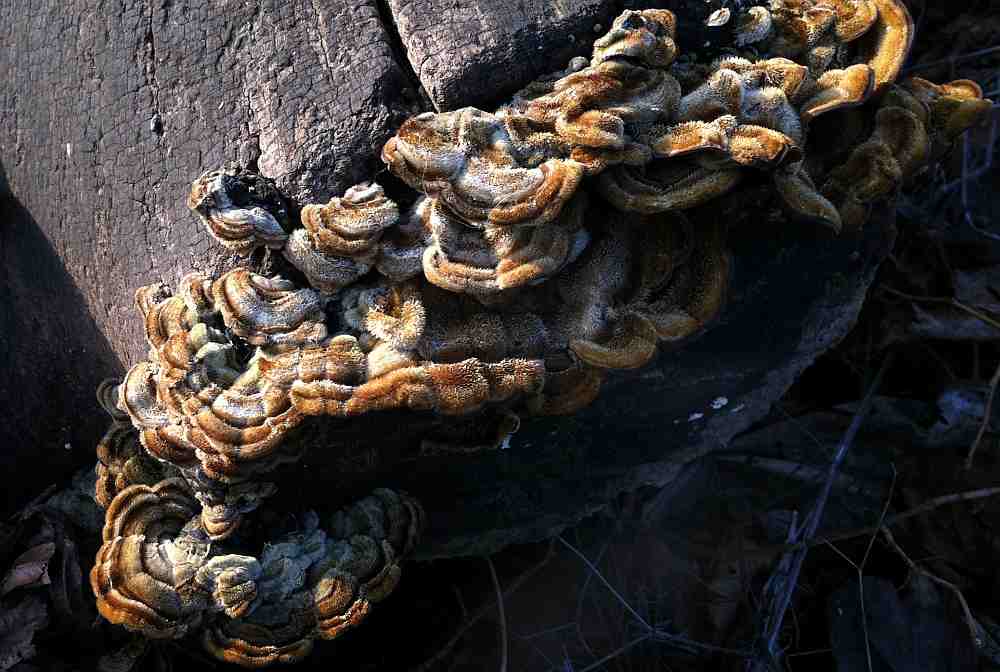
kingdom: Fungi
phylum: Basidiomycota
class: Agaricomycetes
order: Auriculariales
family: Auriculariaceae
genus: Auricularia
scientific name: Auricularia mesenterica
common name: håret judasøre
